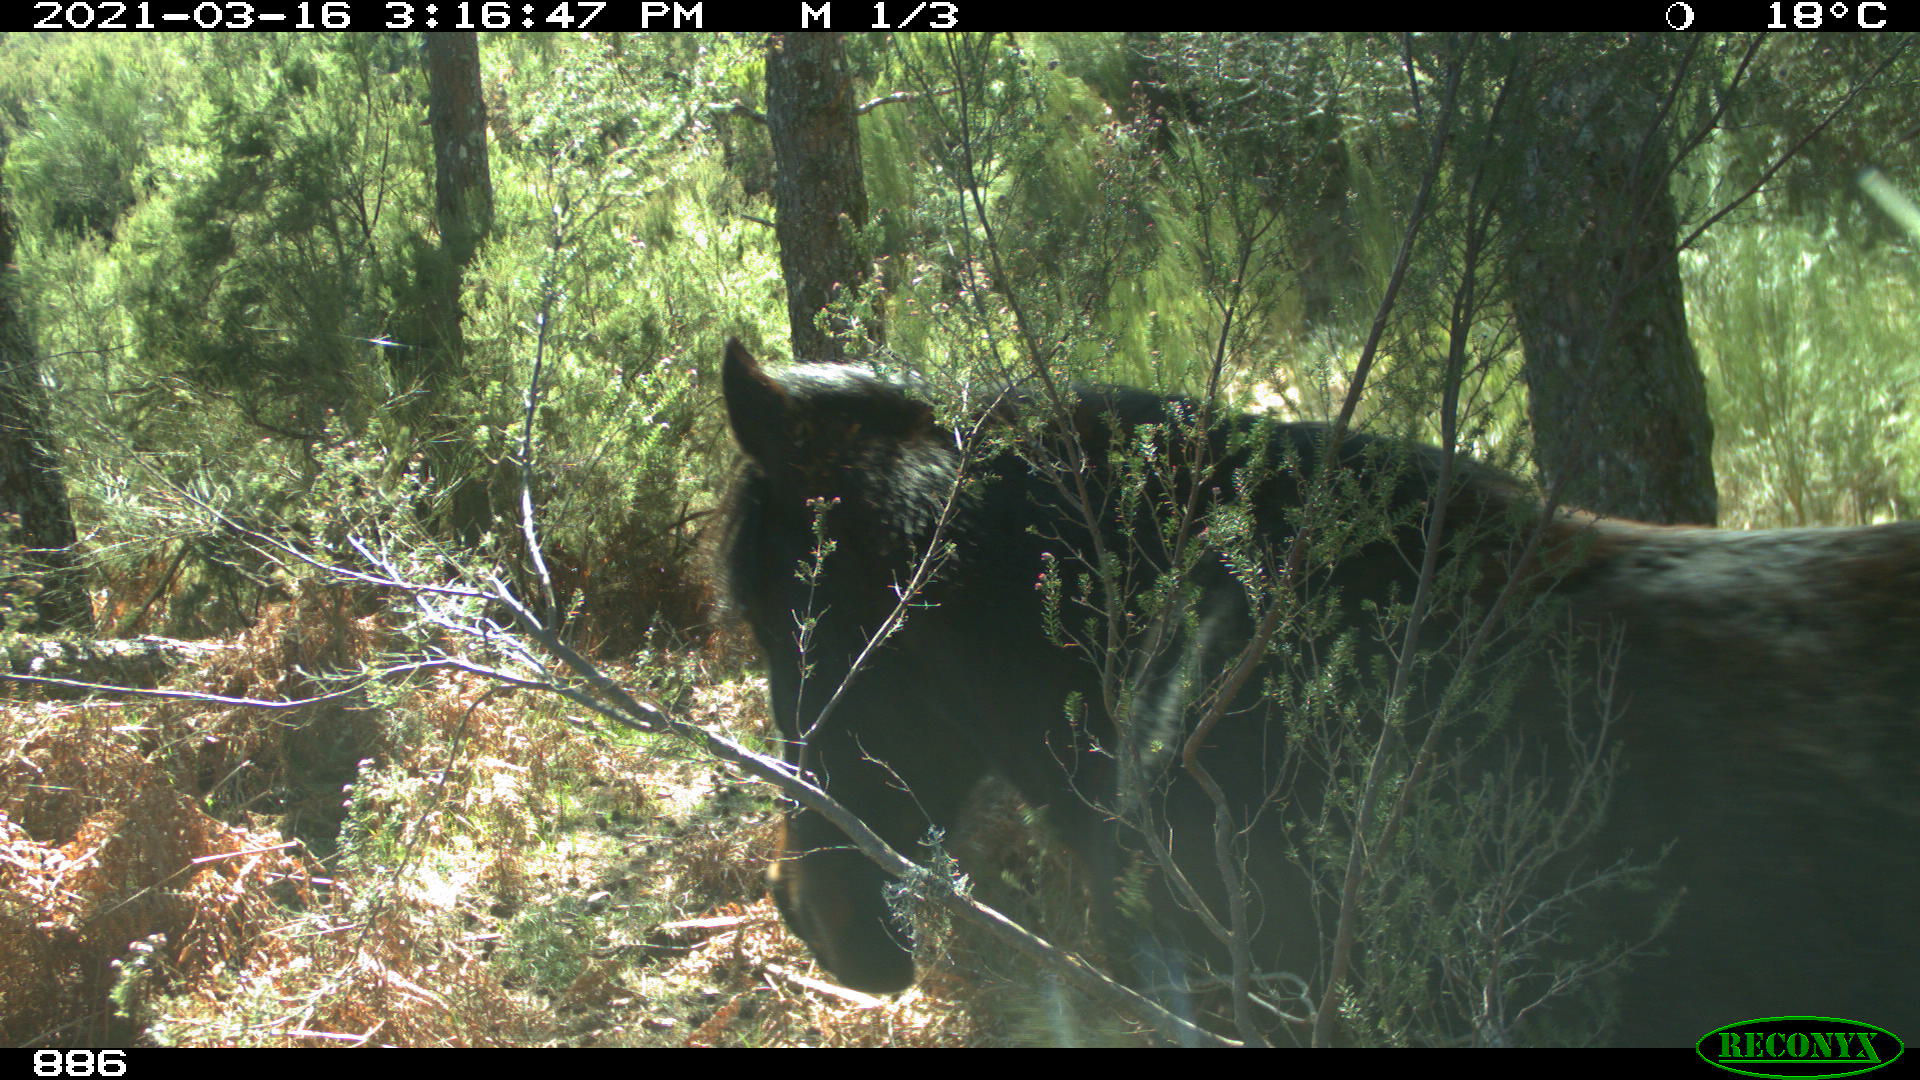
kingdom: Animalia
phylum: Chordata
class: Mammalia
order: Perissodactyla
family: Equidae
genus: Equus
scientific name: Equus caballus
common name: Horse
